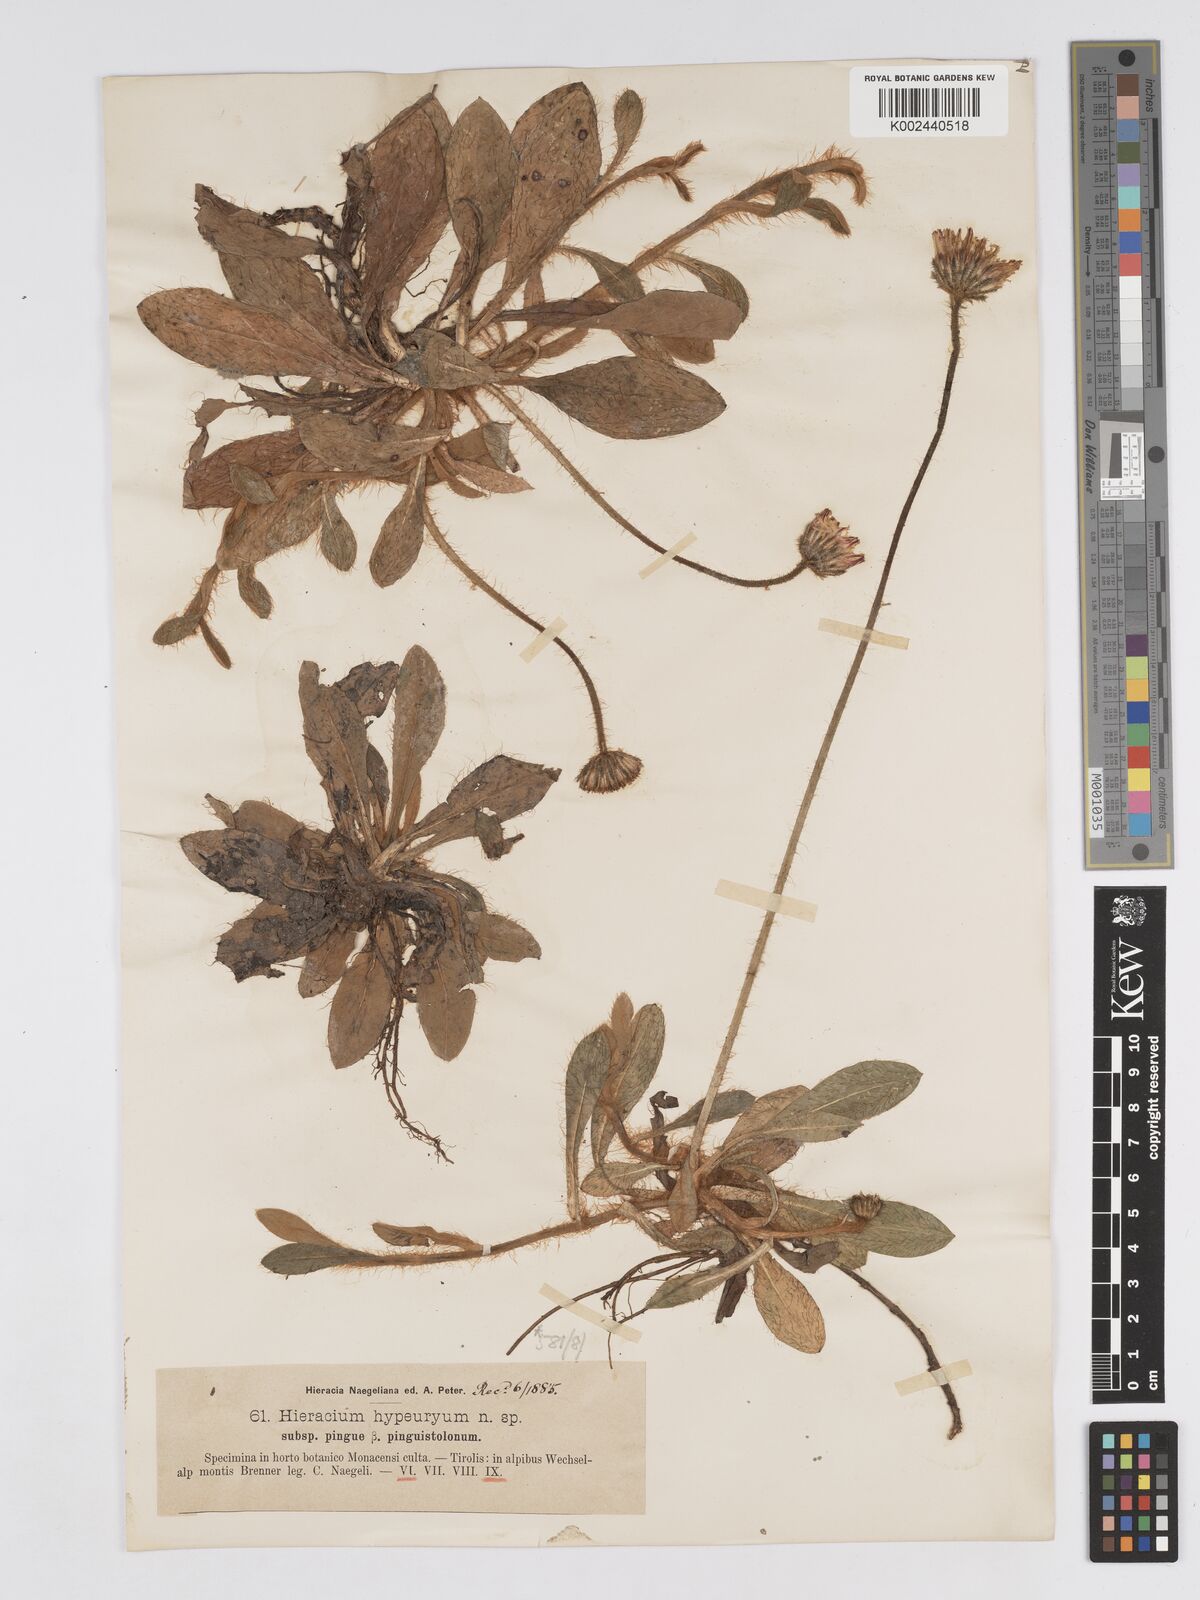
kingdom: Plantae
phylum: Tracheophyta
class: Magnoliopsida
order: Asterales
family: Asteraceae
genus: Pilosella
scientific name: Pilosella hypeurya
